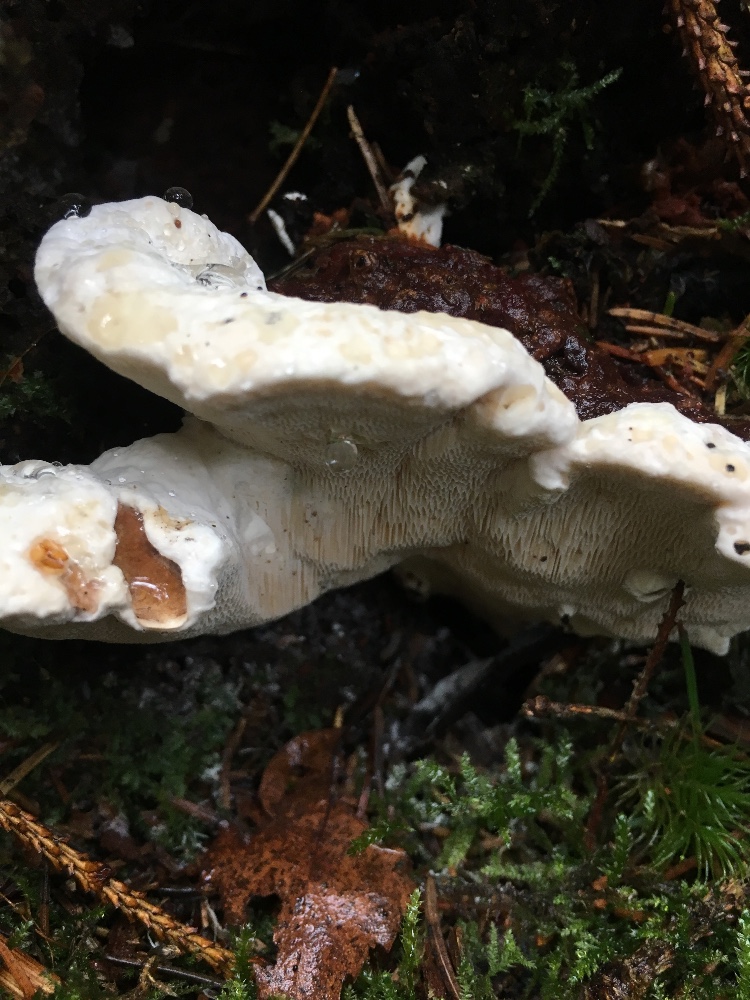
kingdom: Fungi
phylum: Basidiomycota
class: Agaricomycetes
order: Russulales
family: Bondarzewiaceae
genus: Heterobasidion
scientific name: Heterobasidion annosum
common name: almindelig rodfordærver
